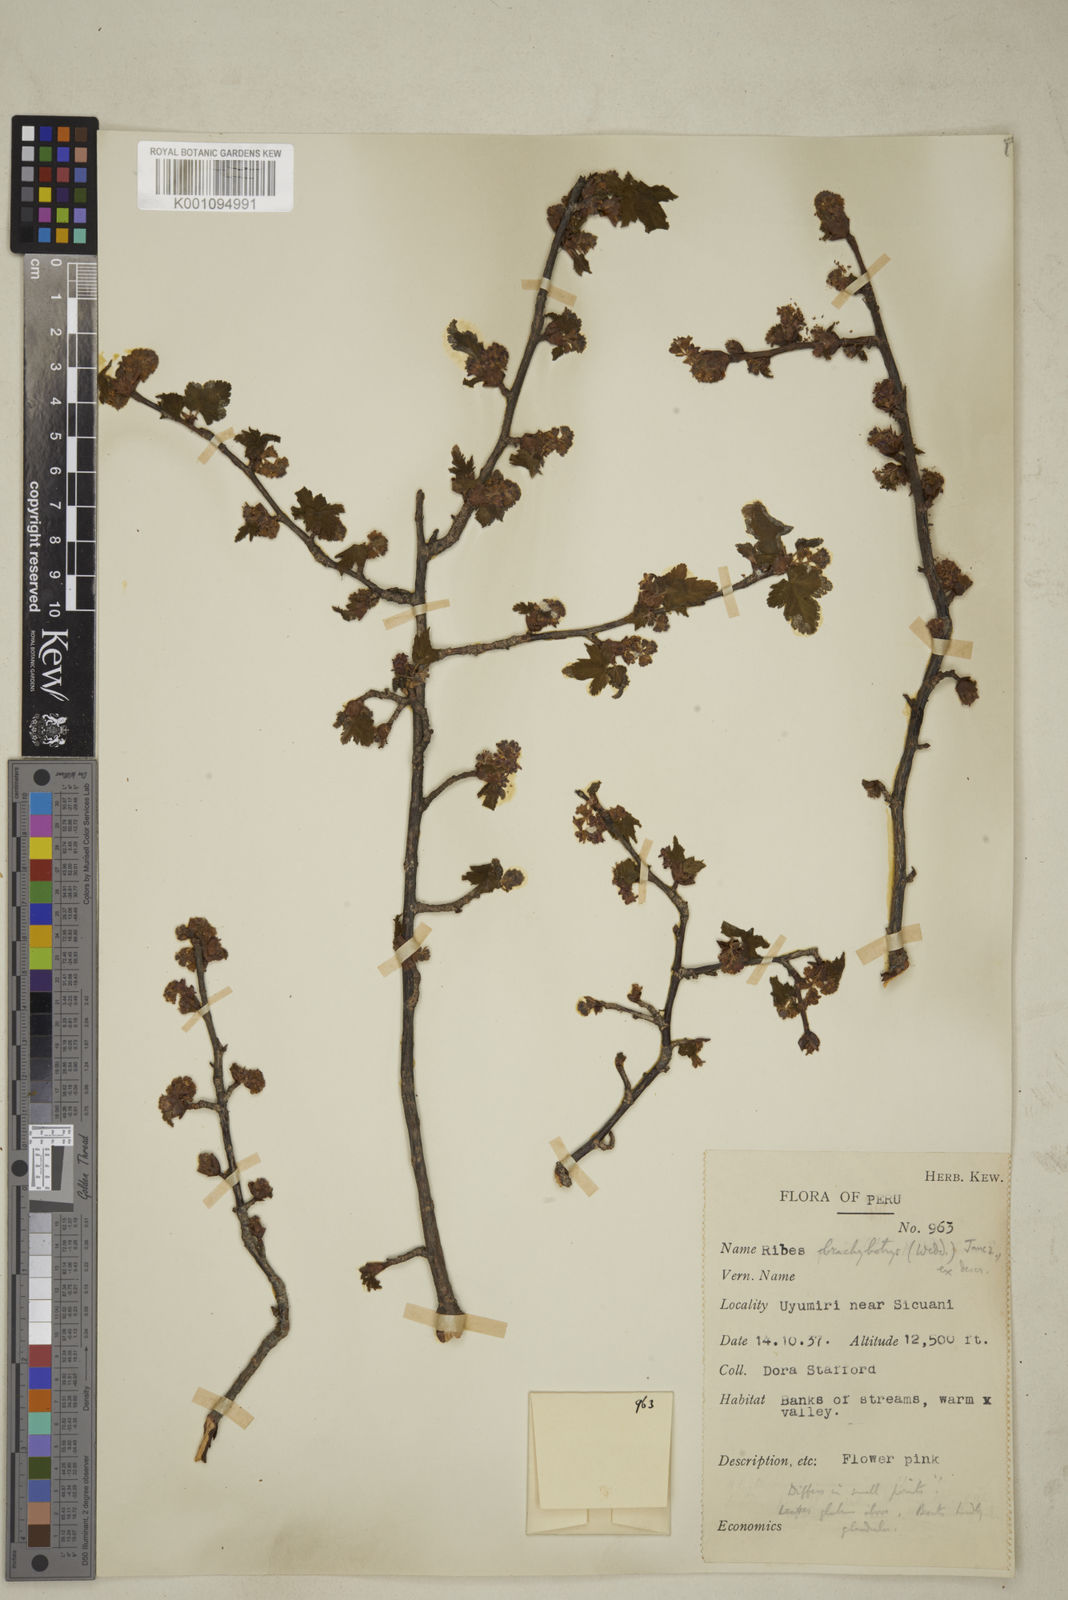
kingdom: Plantae
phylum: Tracheophyta
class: Magnoliopsida
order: Saxifragales
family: Grossulariaceae
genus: Ribes
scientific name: Ribes brachybotrys
